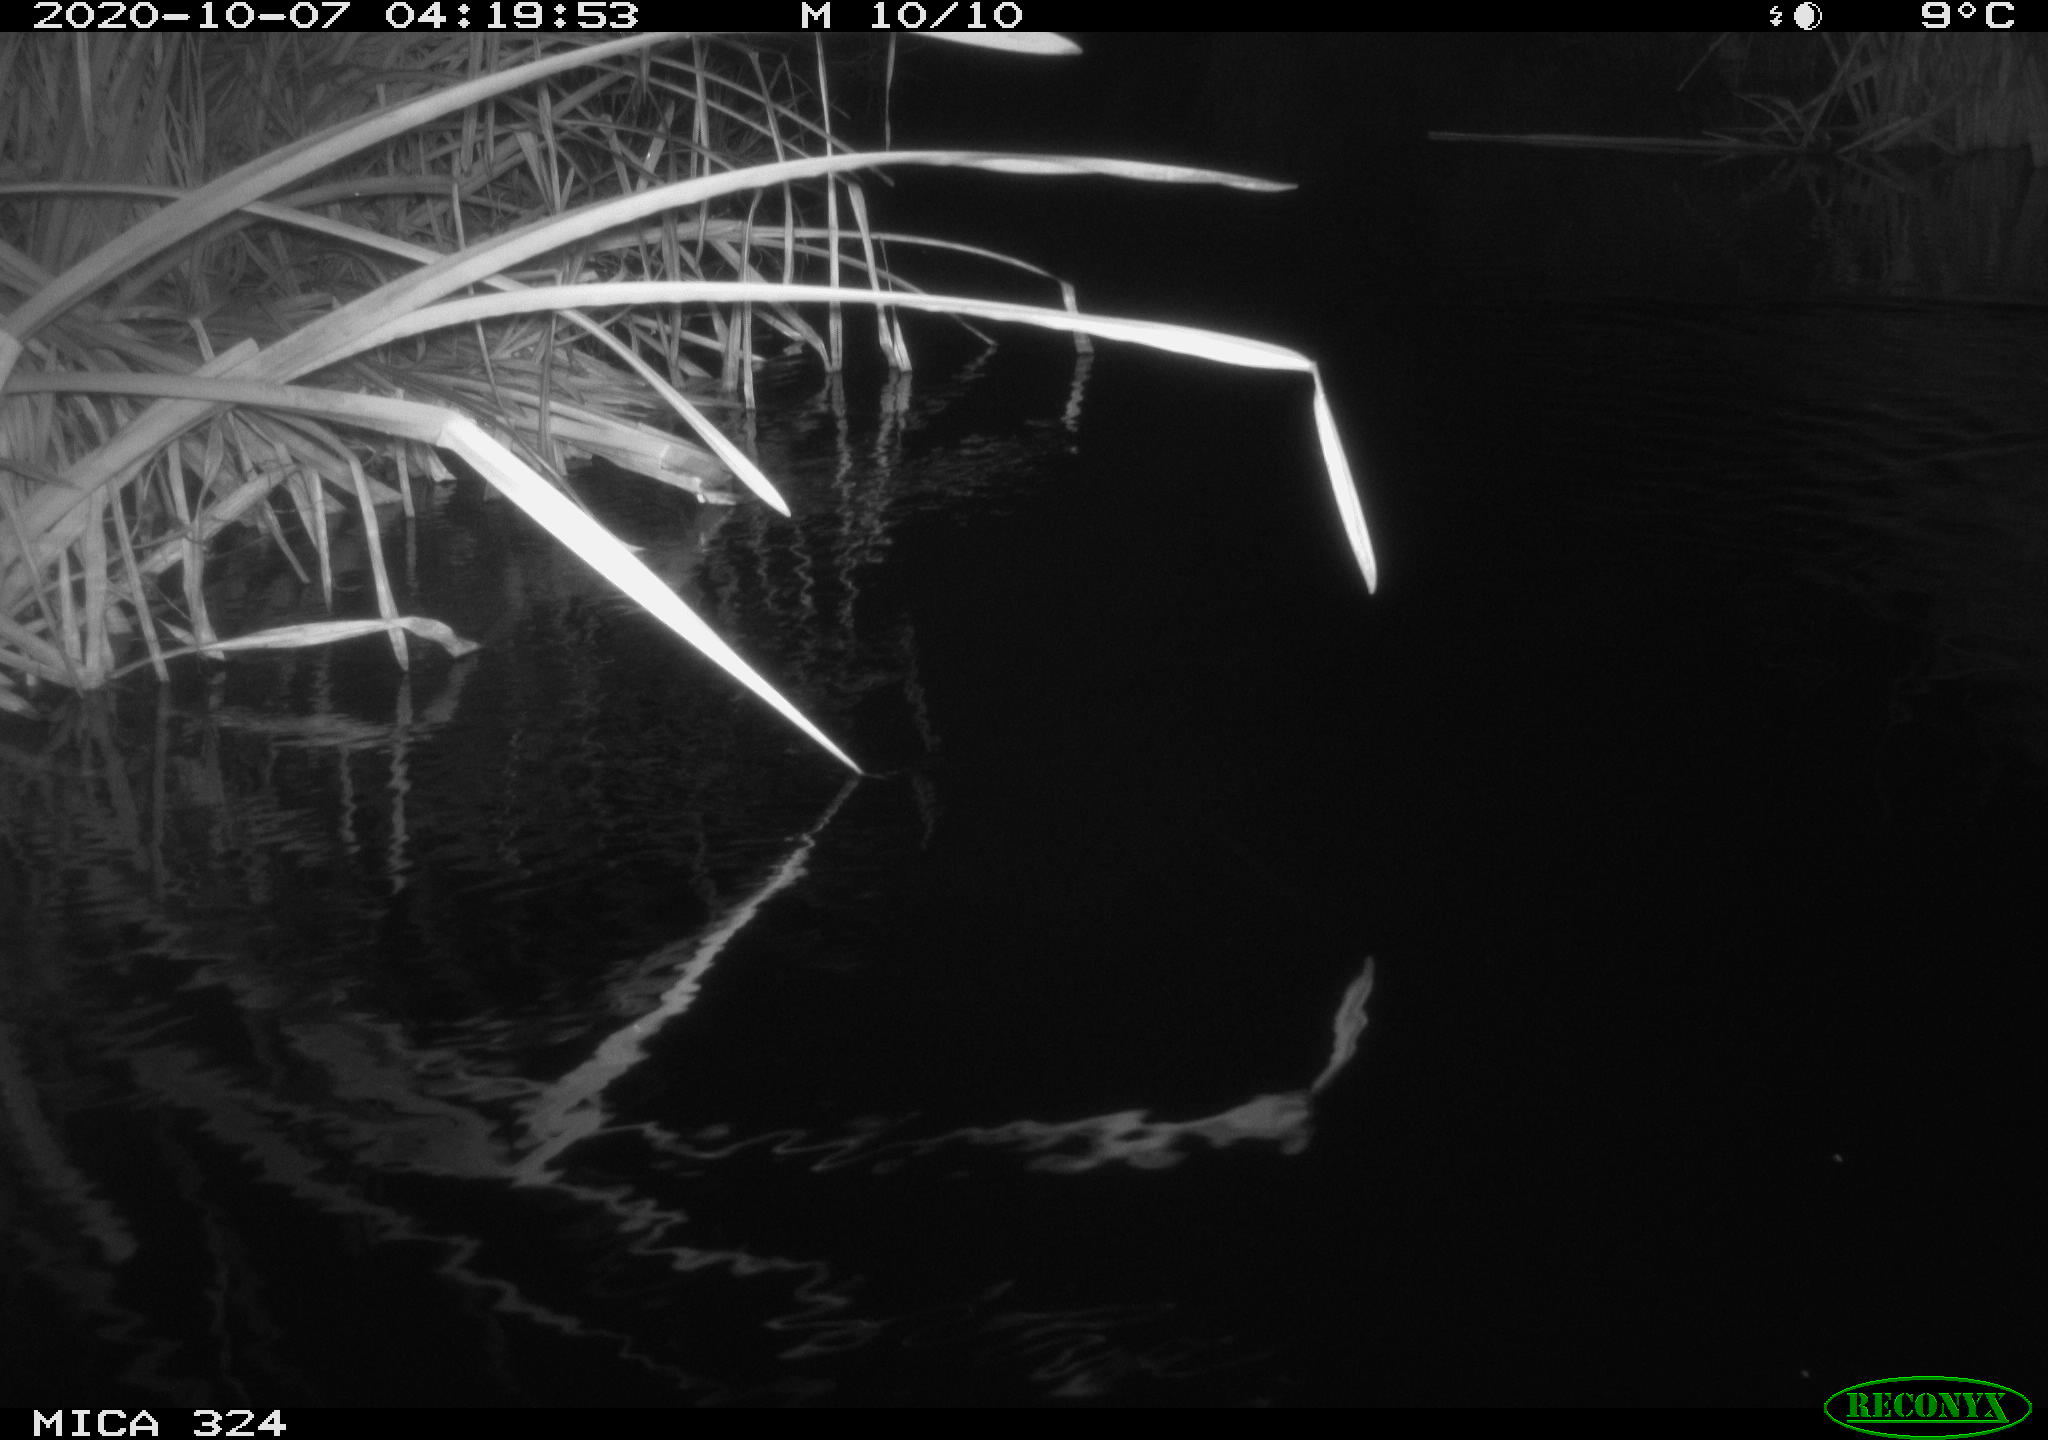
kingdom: Animalia
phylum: Chordata
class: Mammalia
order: Rodentia
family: Cricetidae
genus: Ondatra
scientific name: Ondatra zibethicus
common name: Muskrat
